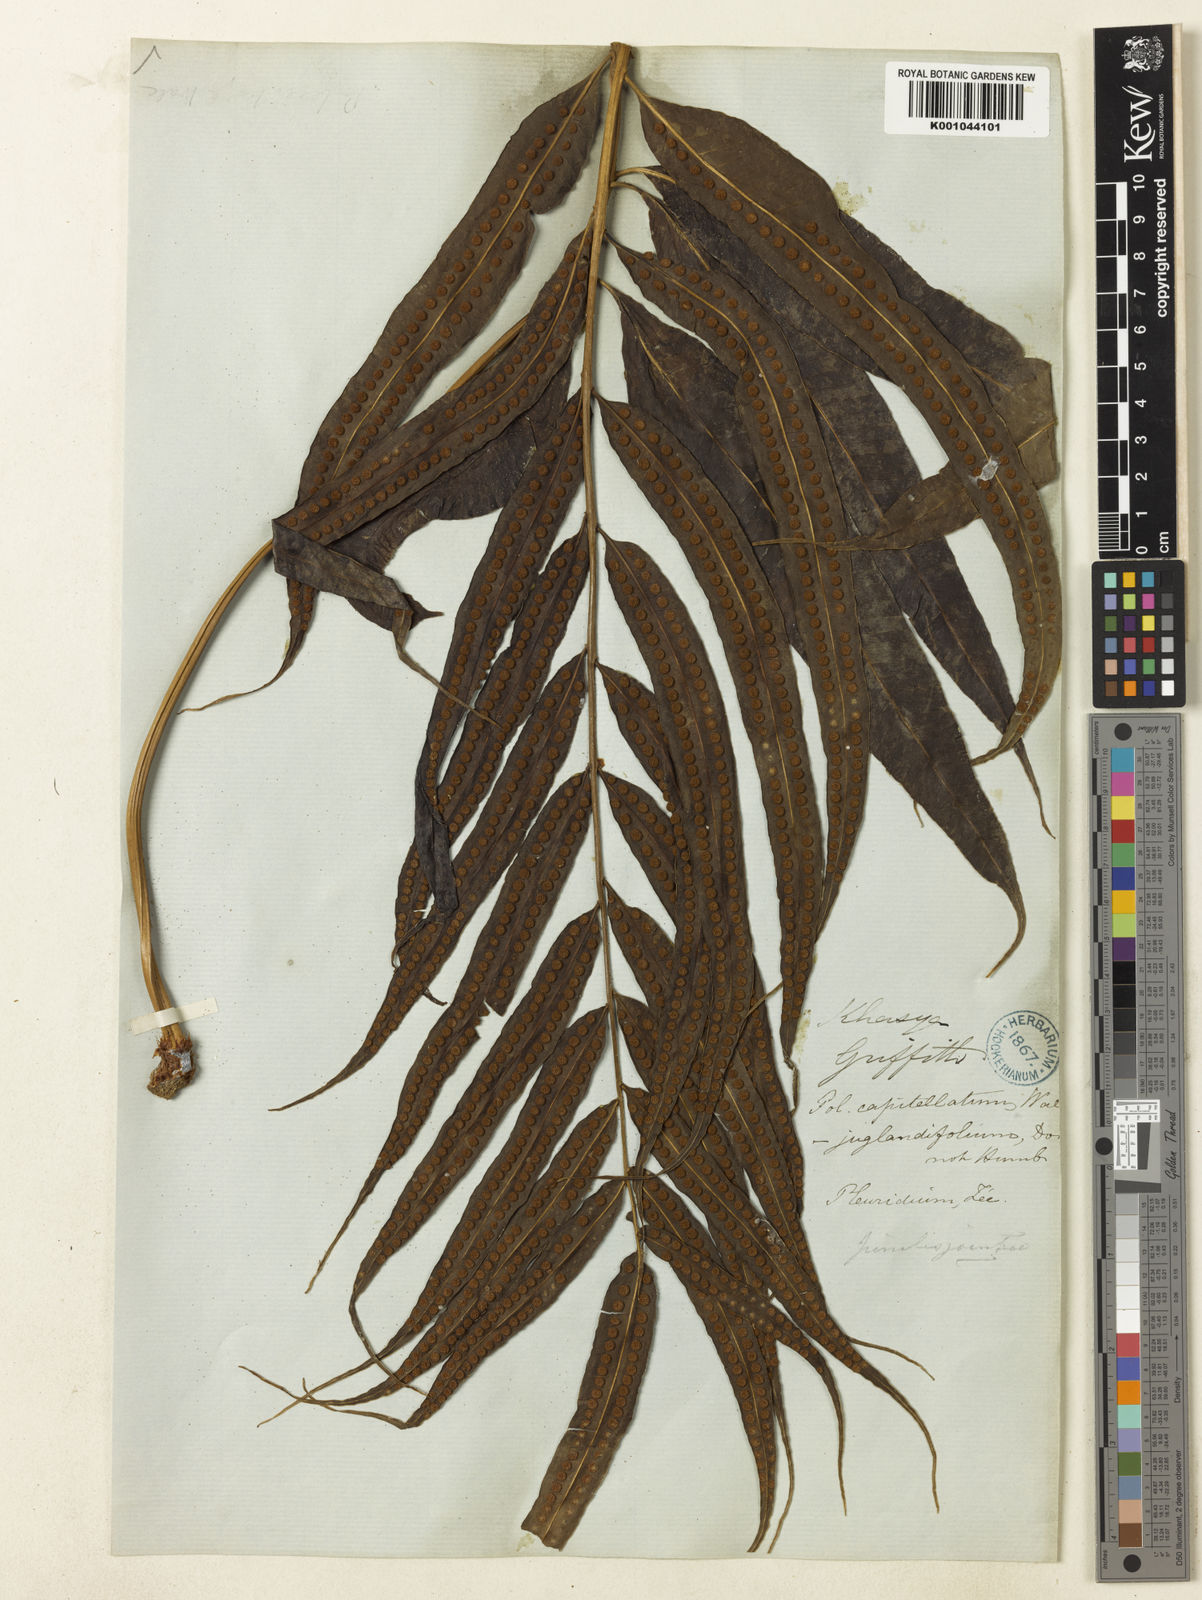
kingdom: Plantae
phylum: Tracheophyta
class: Polypodiopsida
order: Polypodiales
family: Polypodiaceae
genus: Selliguea
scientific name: Selliguea tenuicauda
